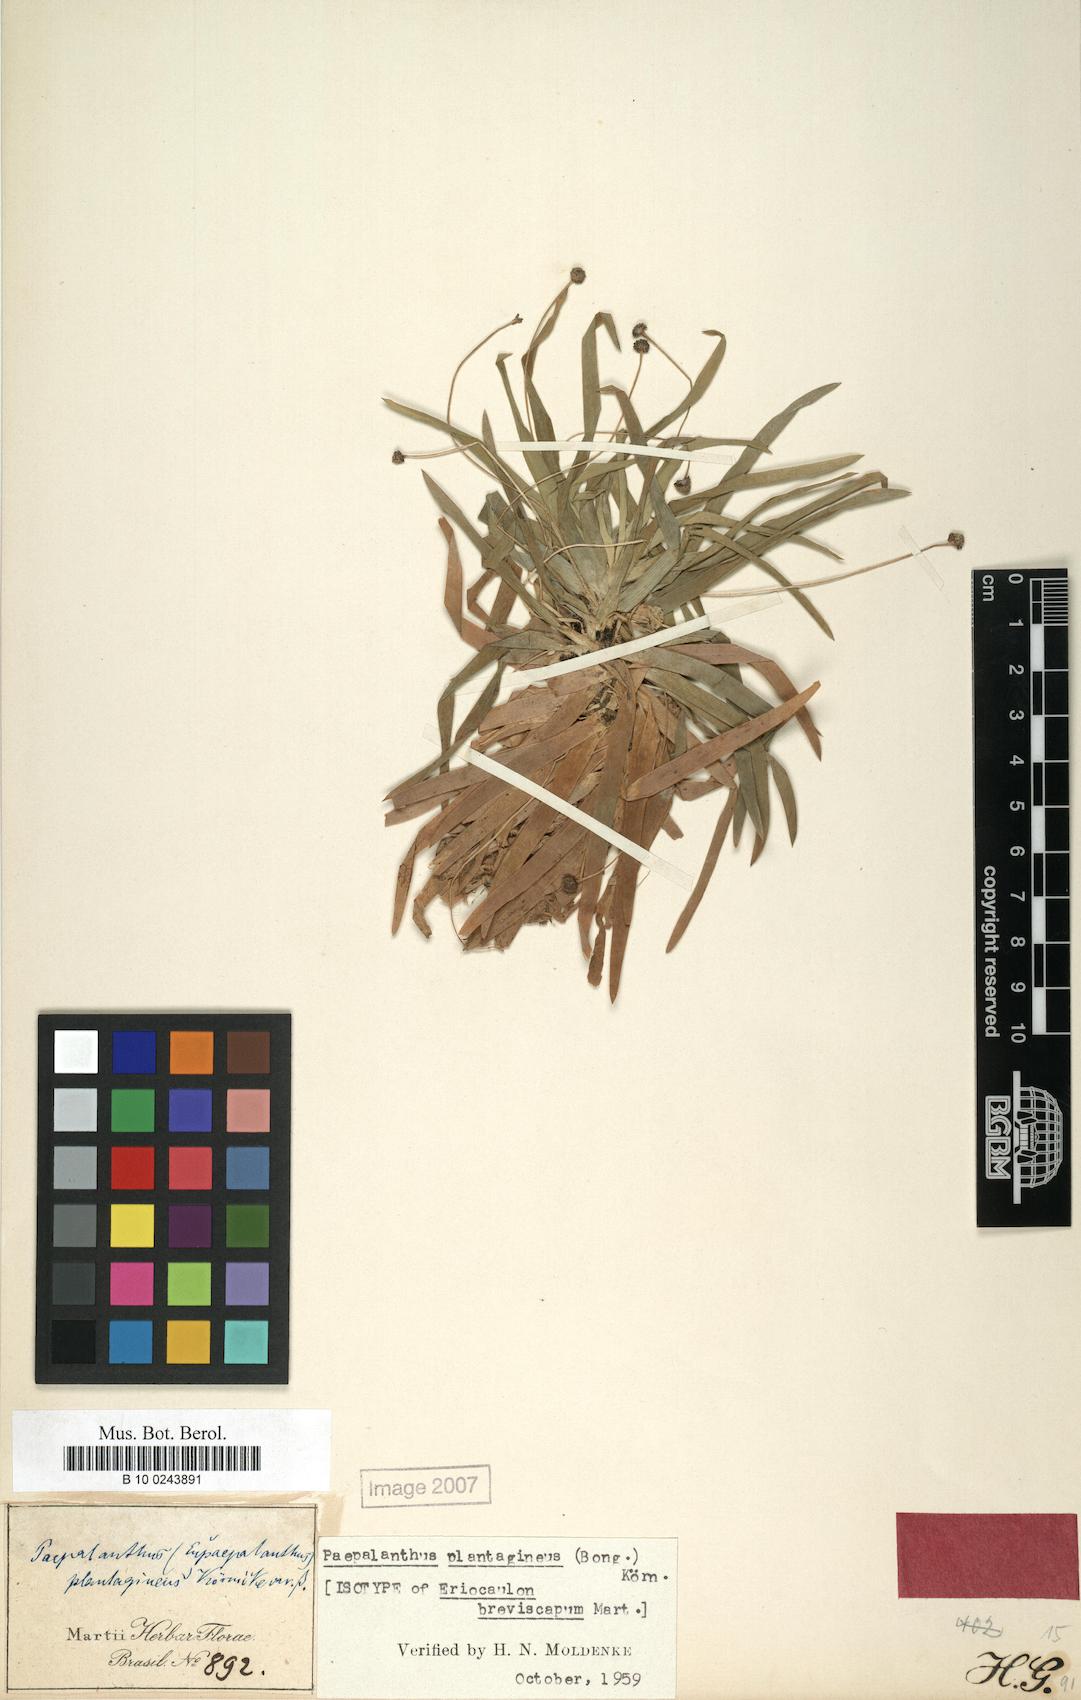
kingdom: Plantae
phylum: Tracheophyta
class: Liliopsida
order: Poales
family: Eriocaulaceae
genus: Paepalanthus
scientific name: Paepalanthus plantagineus
